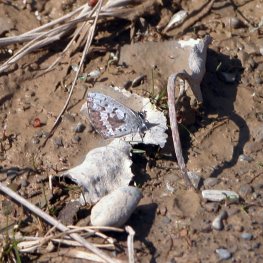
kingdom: Animalia
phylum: Arthropoda
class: Insecta
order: Lepidoptera
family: Lycaenidae
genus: Celastrina
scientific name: Celastrina lucia
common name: Northern Spring Azure
